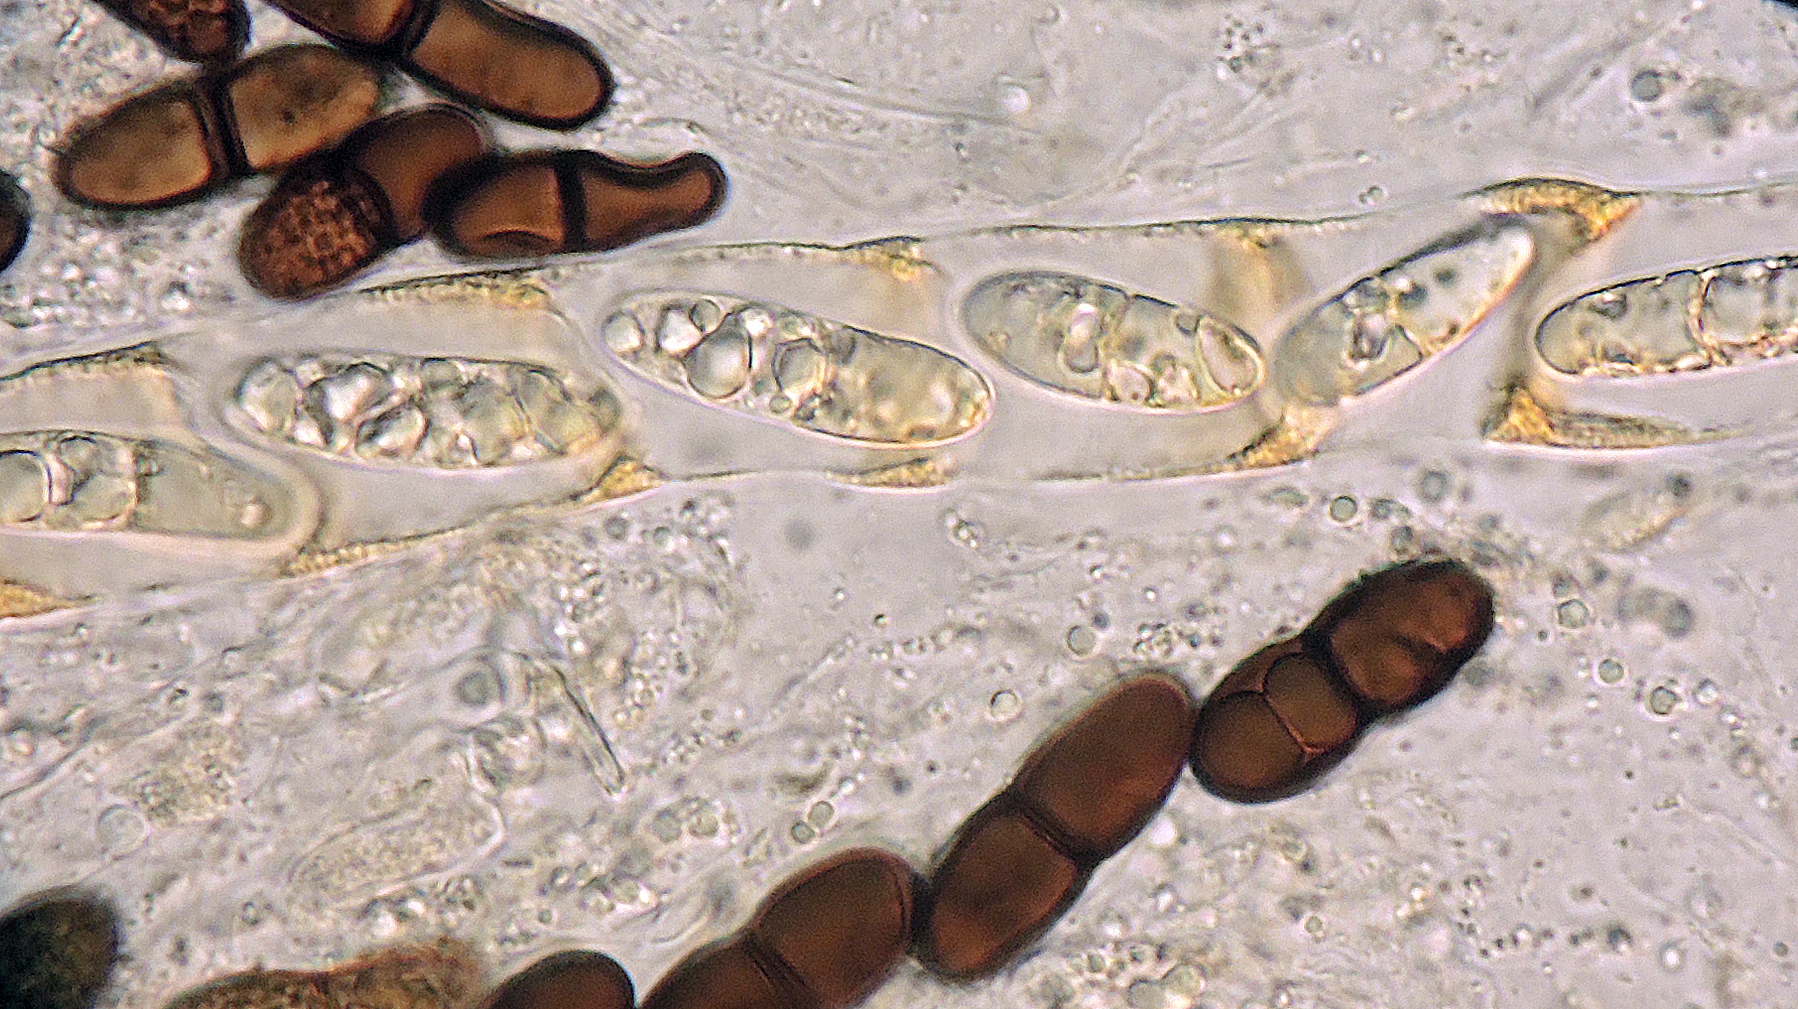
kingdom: Fungi
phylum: Ascomycota
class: Sordariomycetes
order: Amphisphaeriales
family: Amphisphaeriaceae
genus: Amphisphaeria
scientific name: Amphisphaeria bufonia
